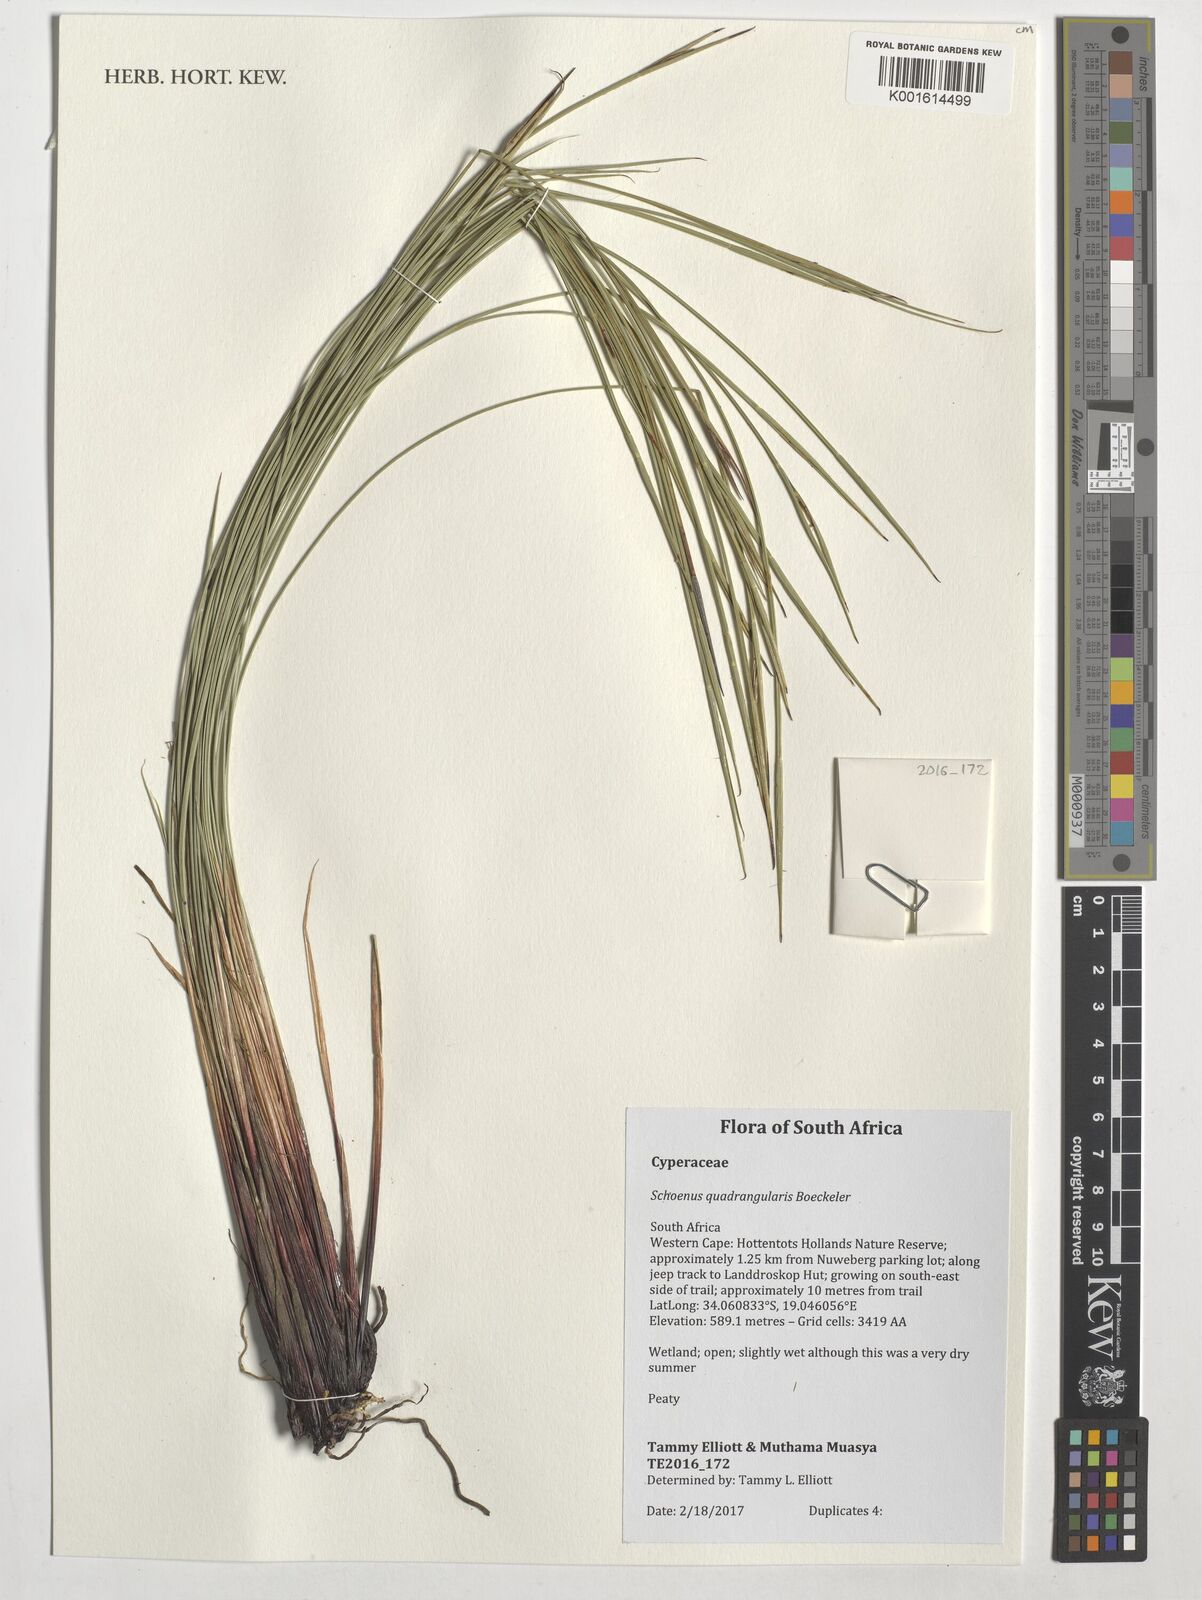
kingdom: Plantae
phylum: Tracheophyta
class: Liliopsida
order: Poales
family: Cyperaceae
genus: Schoenus
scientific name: Schoenus quadrangularis
